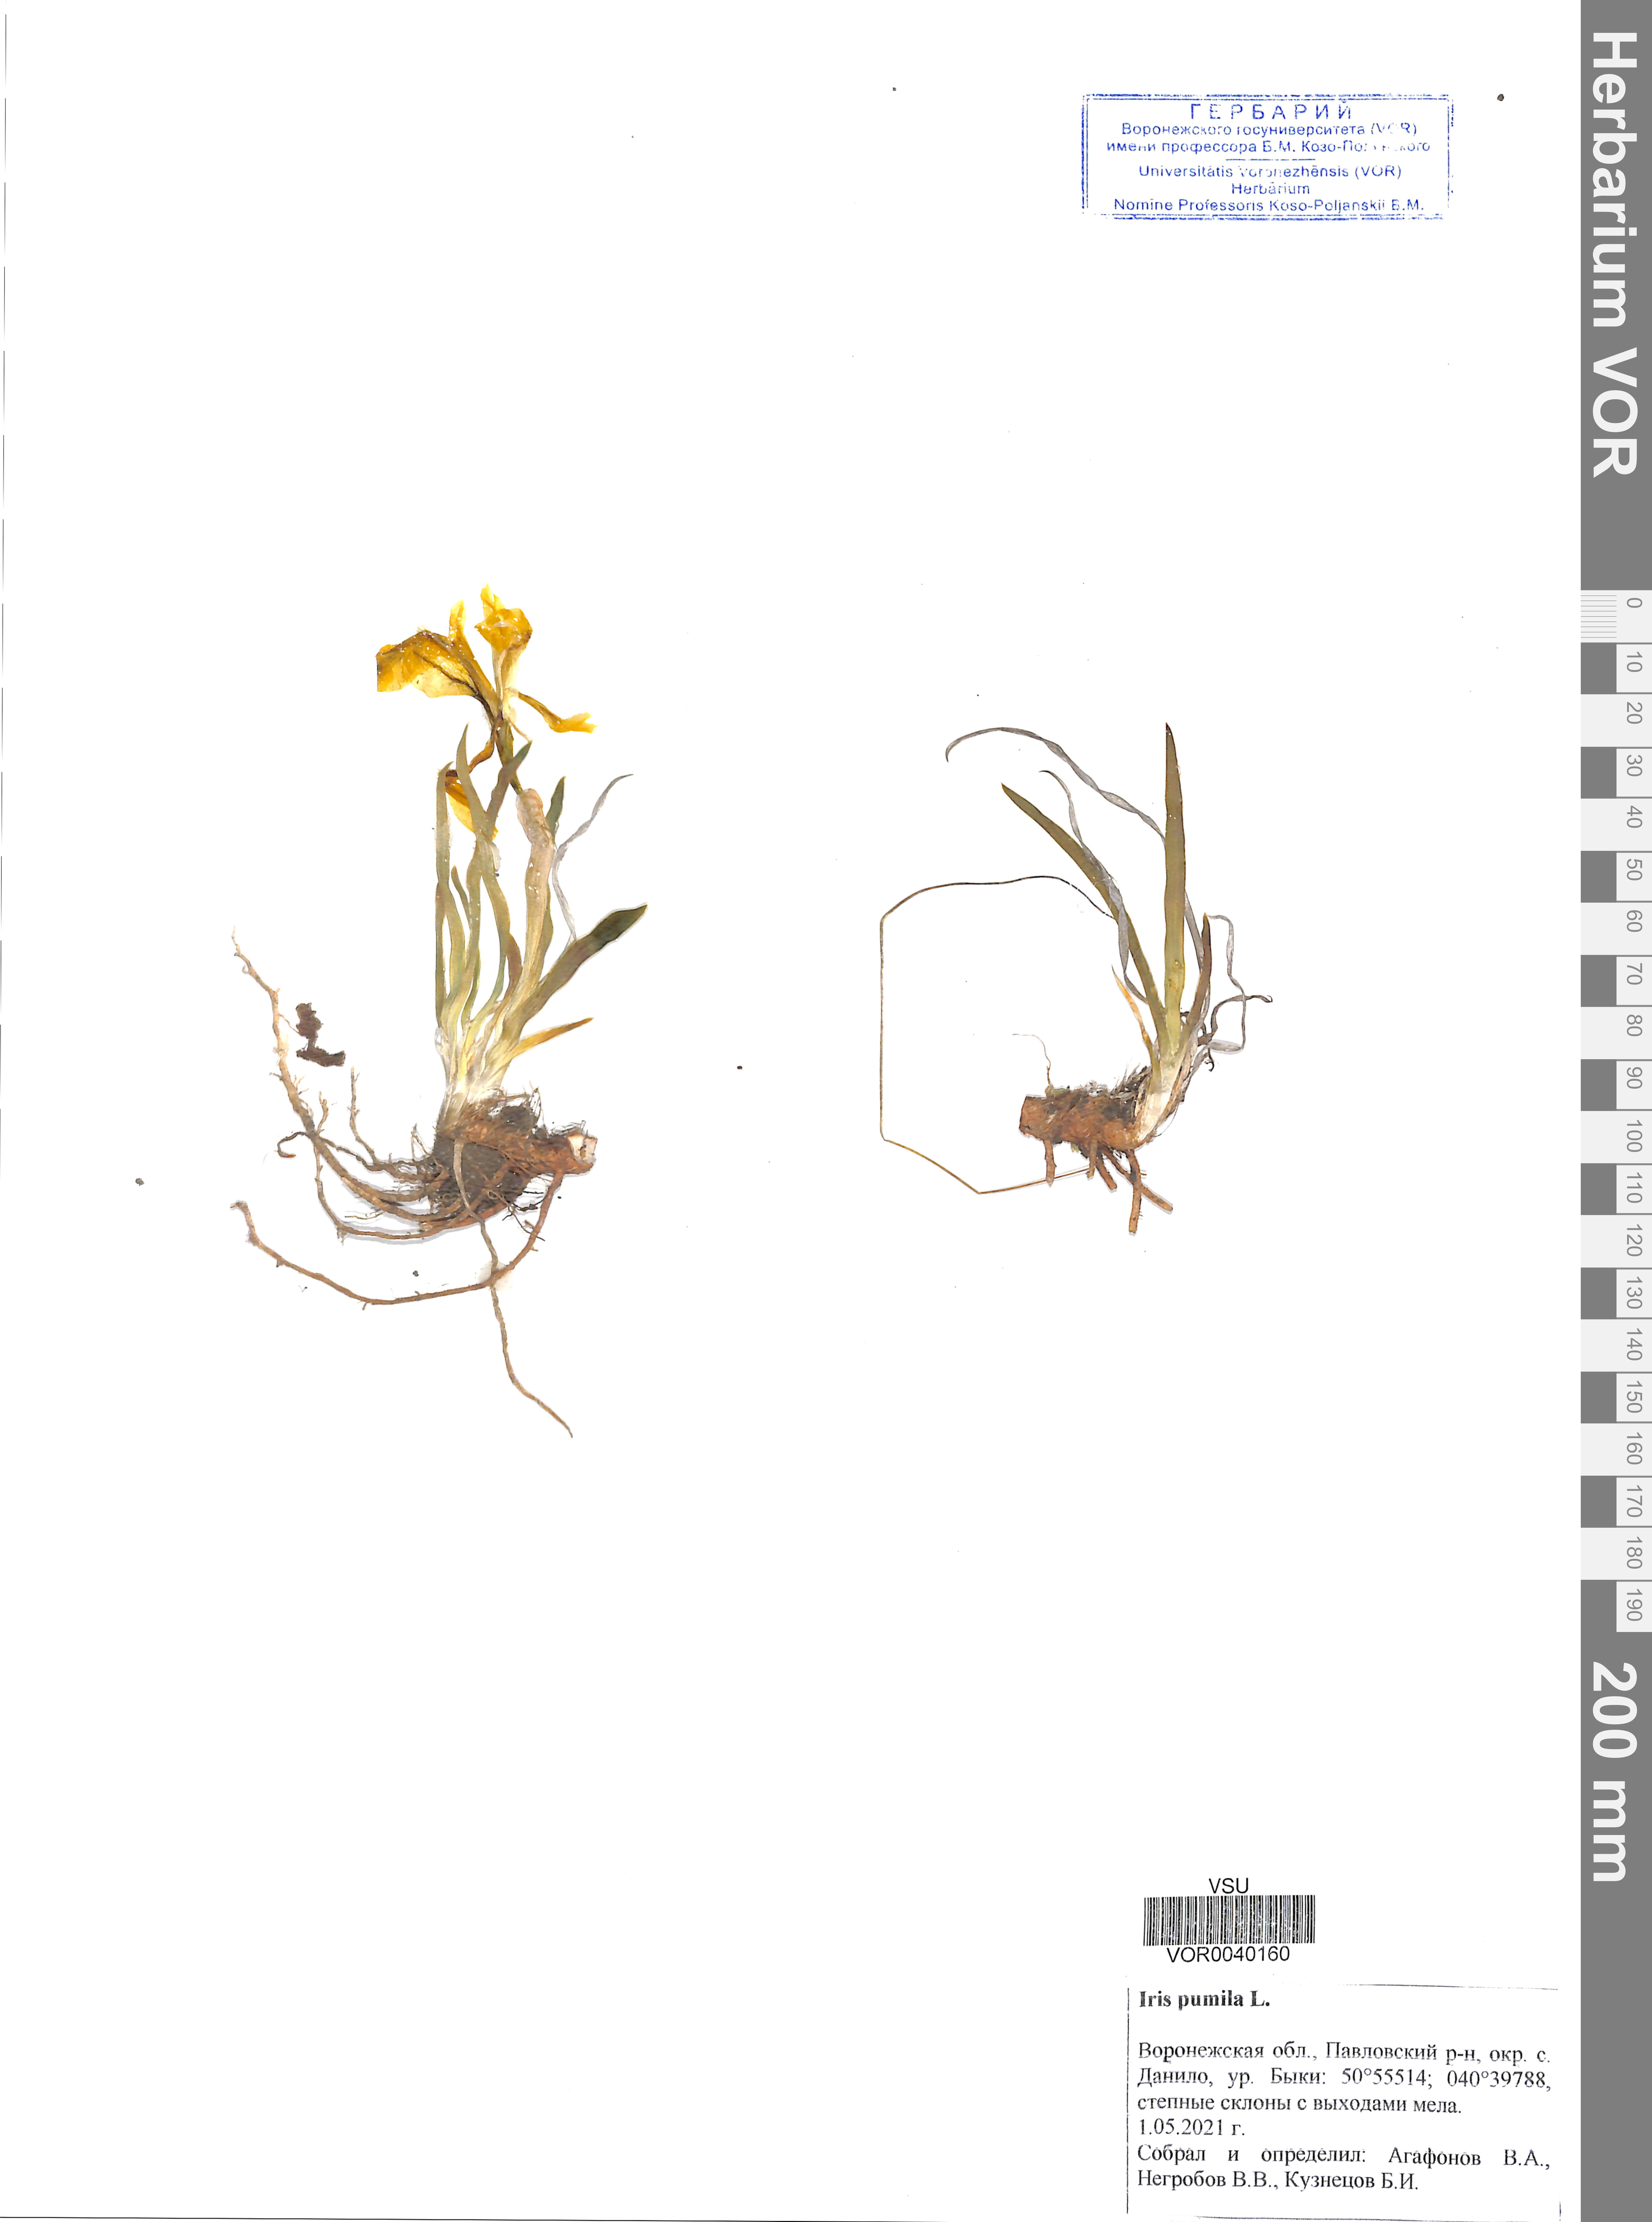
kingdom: Plantae
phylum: Tracheophyta
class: Liliopsida
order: Asparagales
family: Iridaceae
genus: Iris
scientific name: Iris pumila
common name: Dwarf iris
